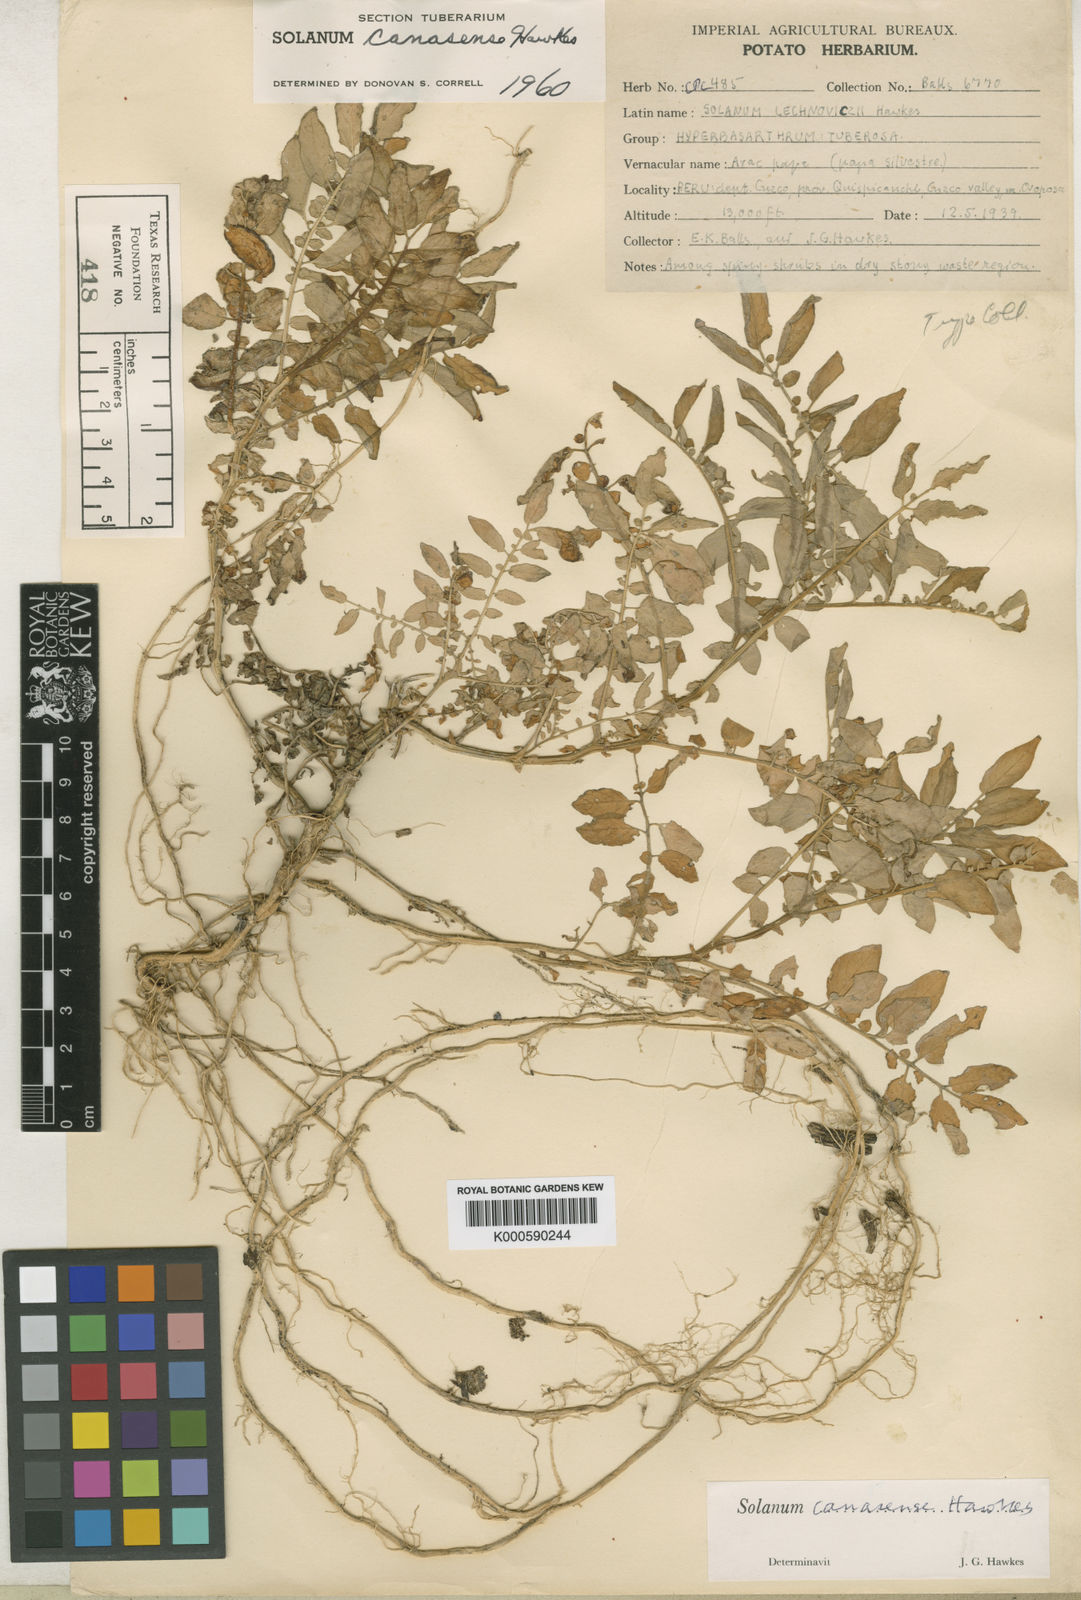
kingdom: Plantae
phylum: Tracheophyta
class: Magnoliopsida
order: Solanales
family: Solanaceae
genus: Solanum
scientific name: Solanum candolleanum
